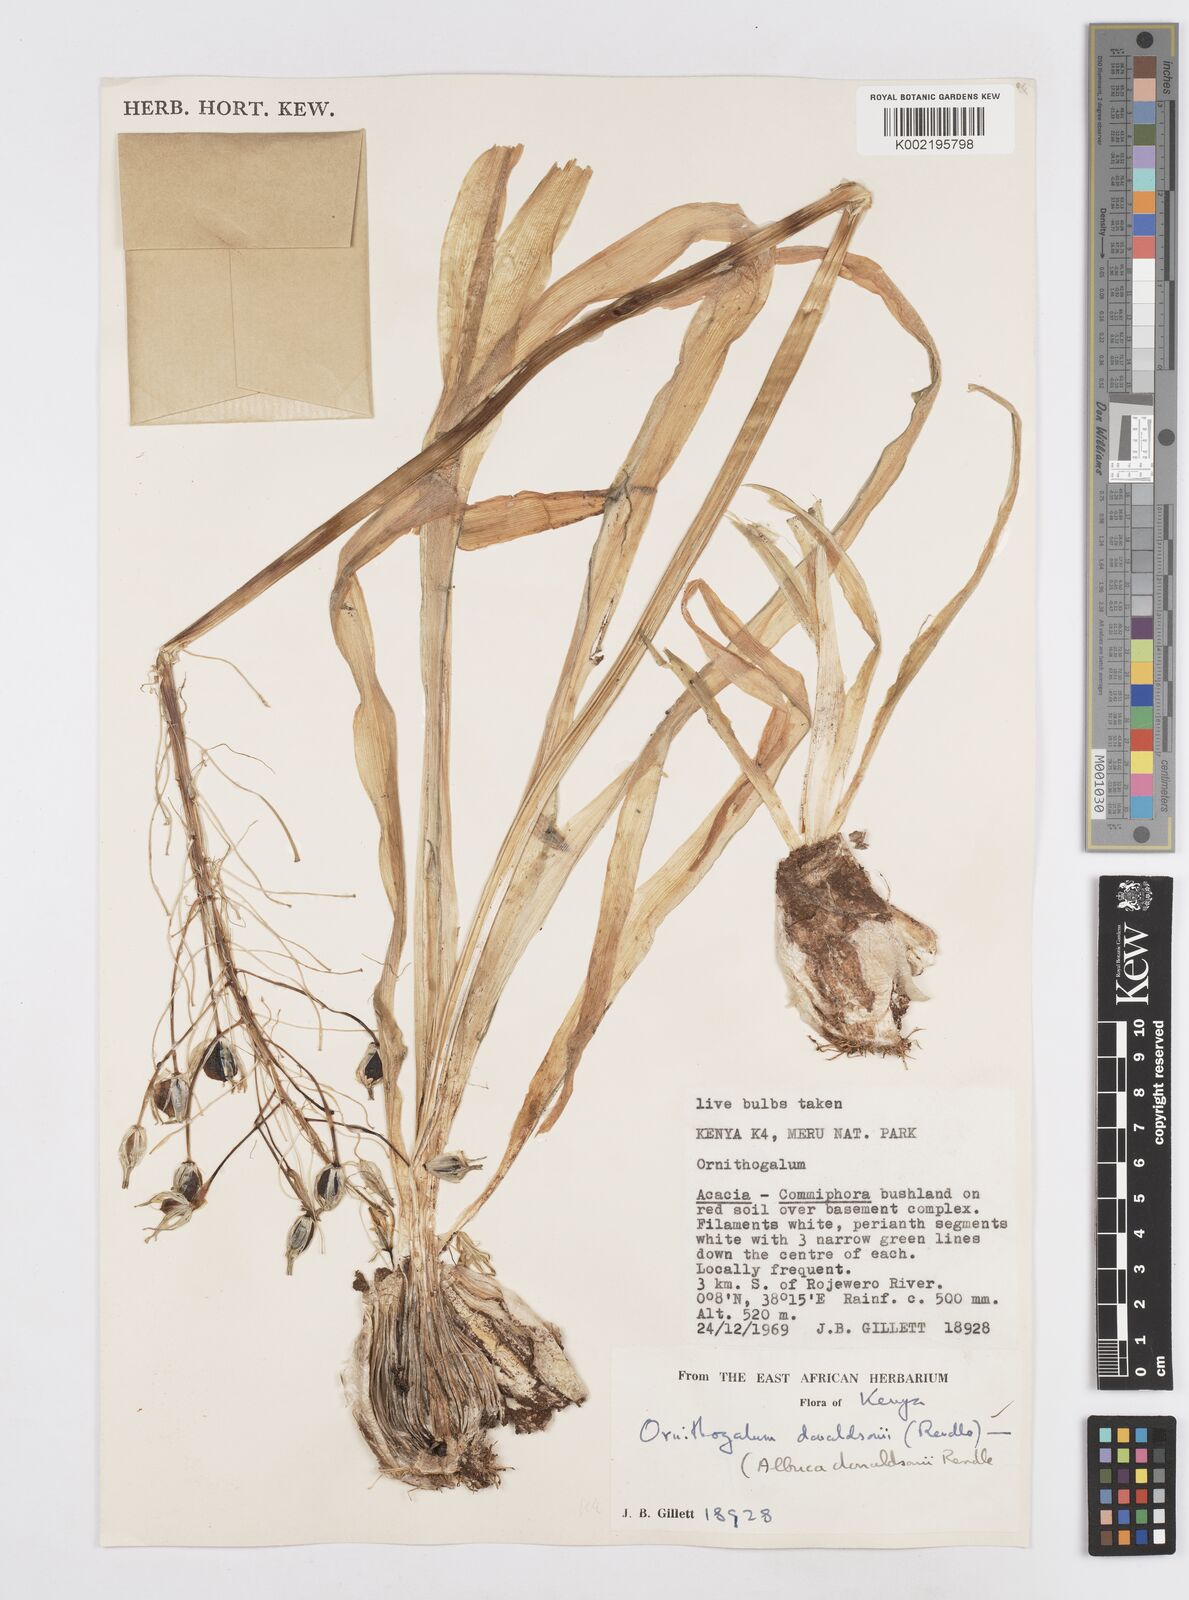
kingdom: Plantae
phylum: Tracheophyta
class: Liliopsida
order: Asparagales
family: Asparagaceae
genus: Albuca
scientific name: Albuca donaldsonii
